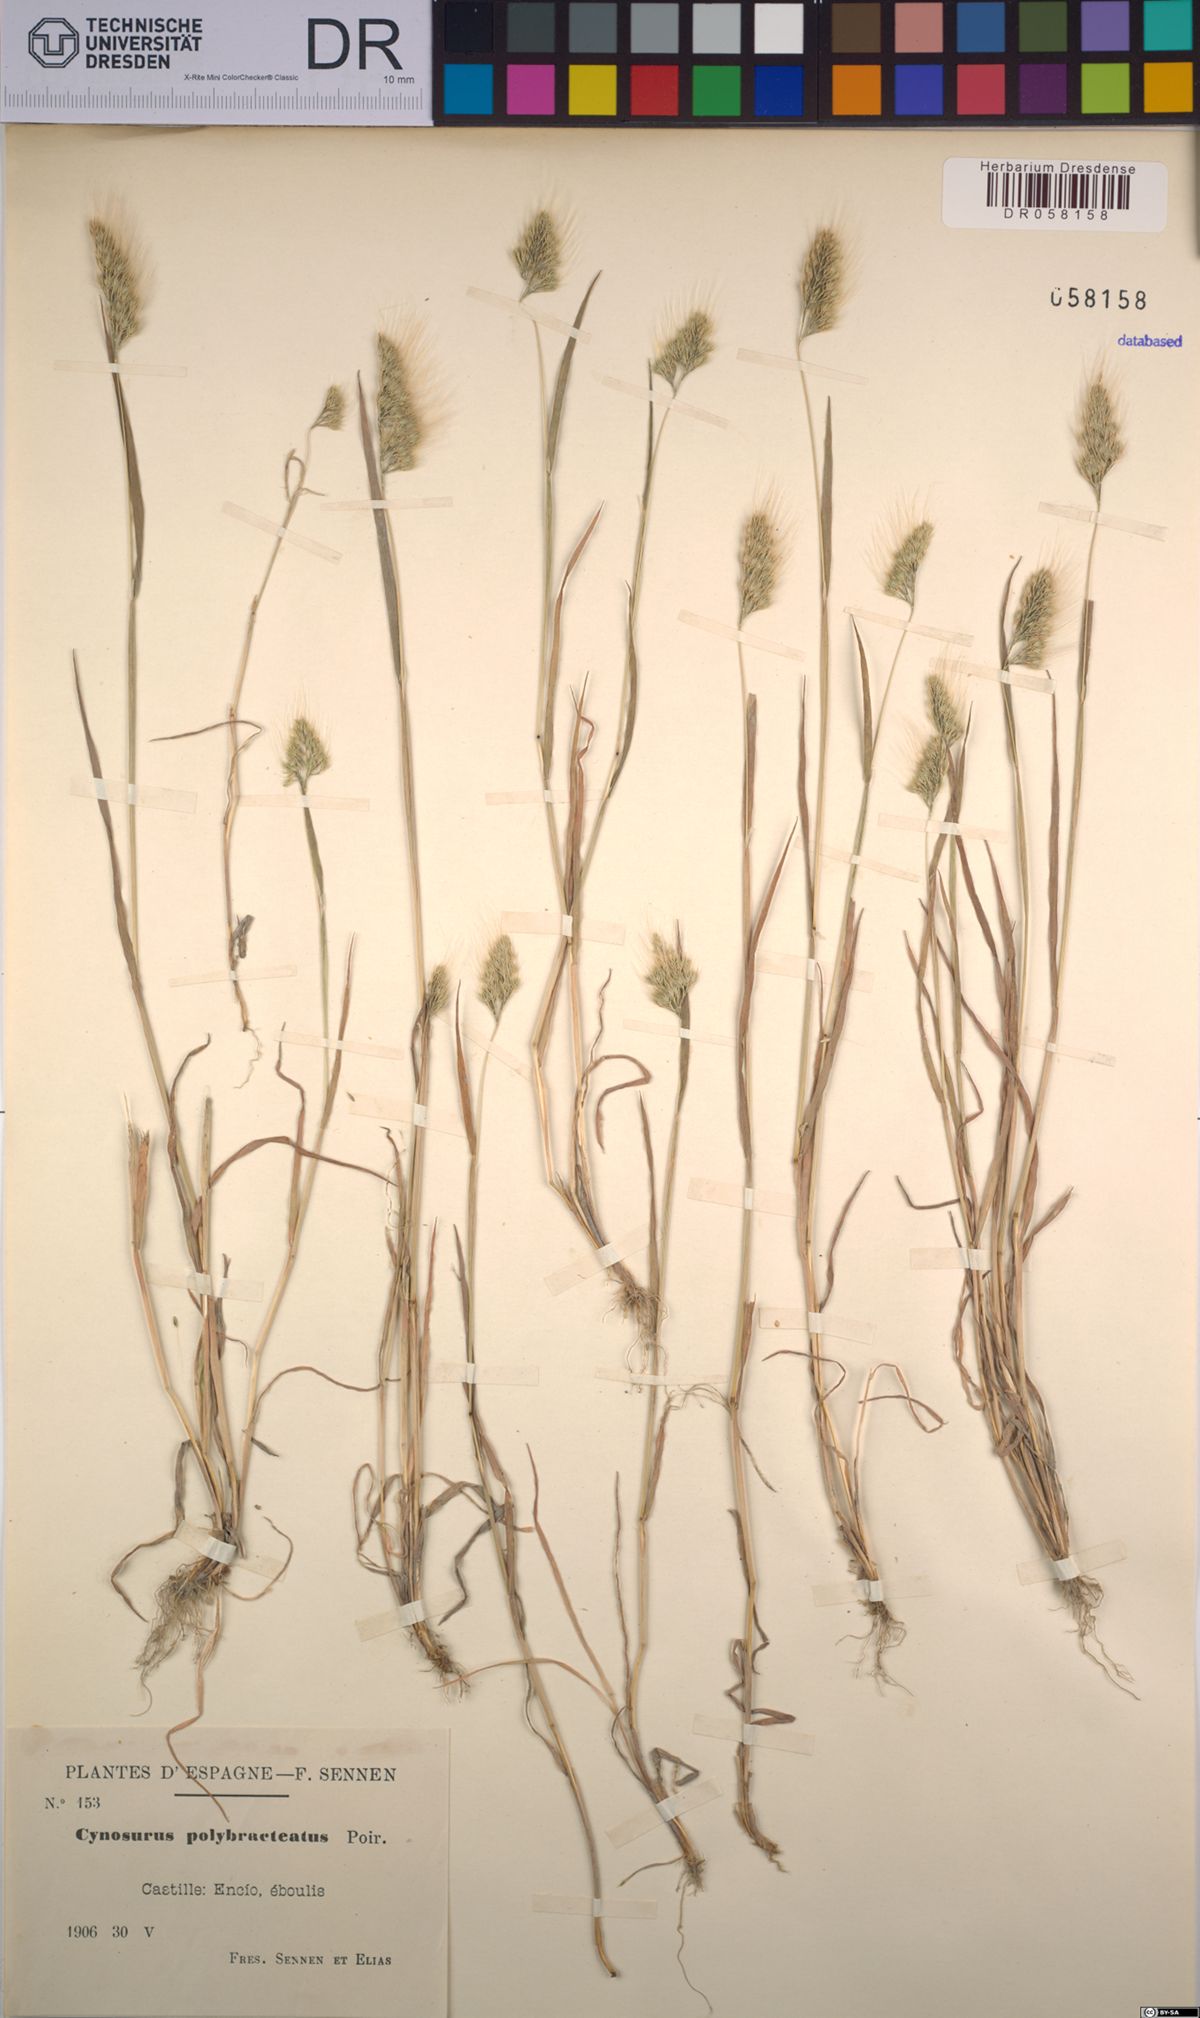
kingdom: Plantae
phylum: Tracheophyta
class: Liliopsida
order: Poales
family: Poaceae
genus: Cynosurus
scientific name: Cynosurus polybracteatus
